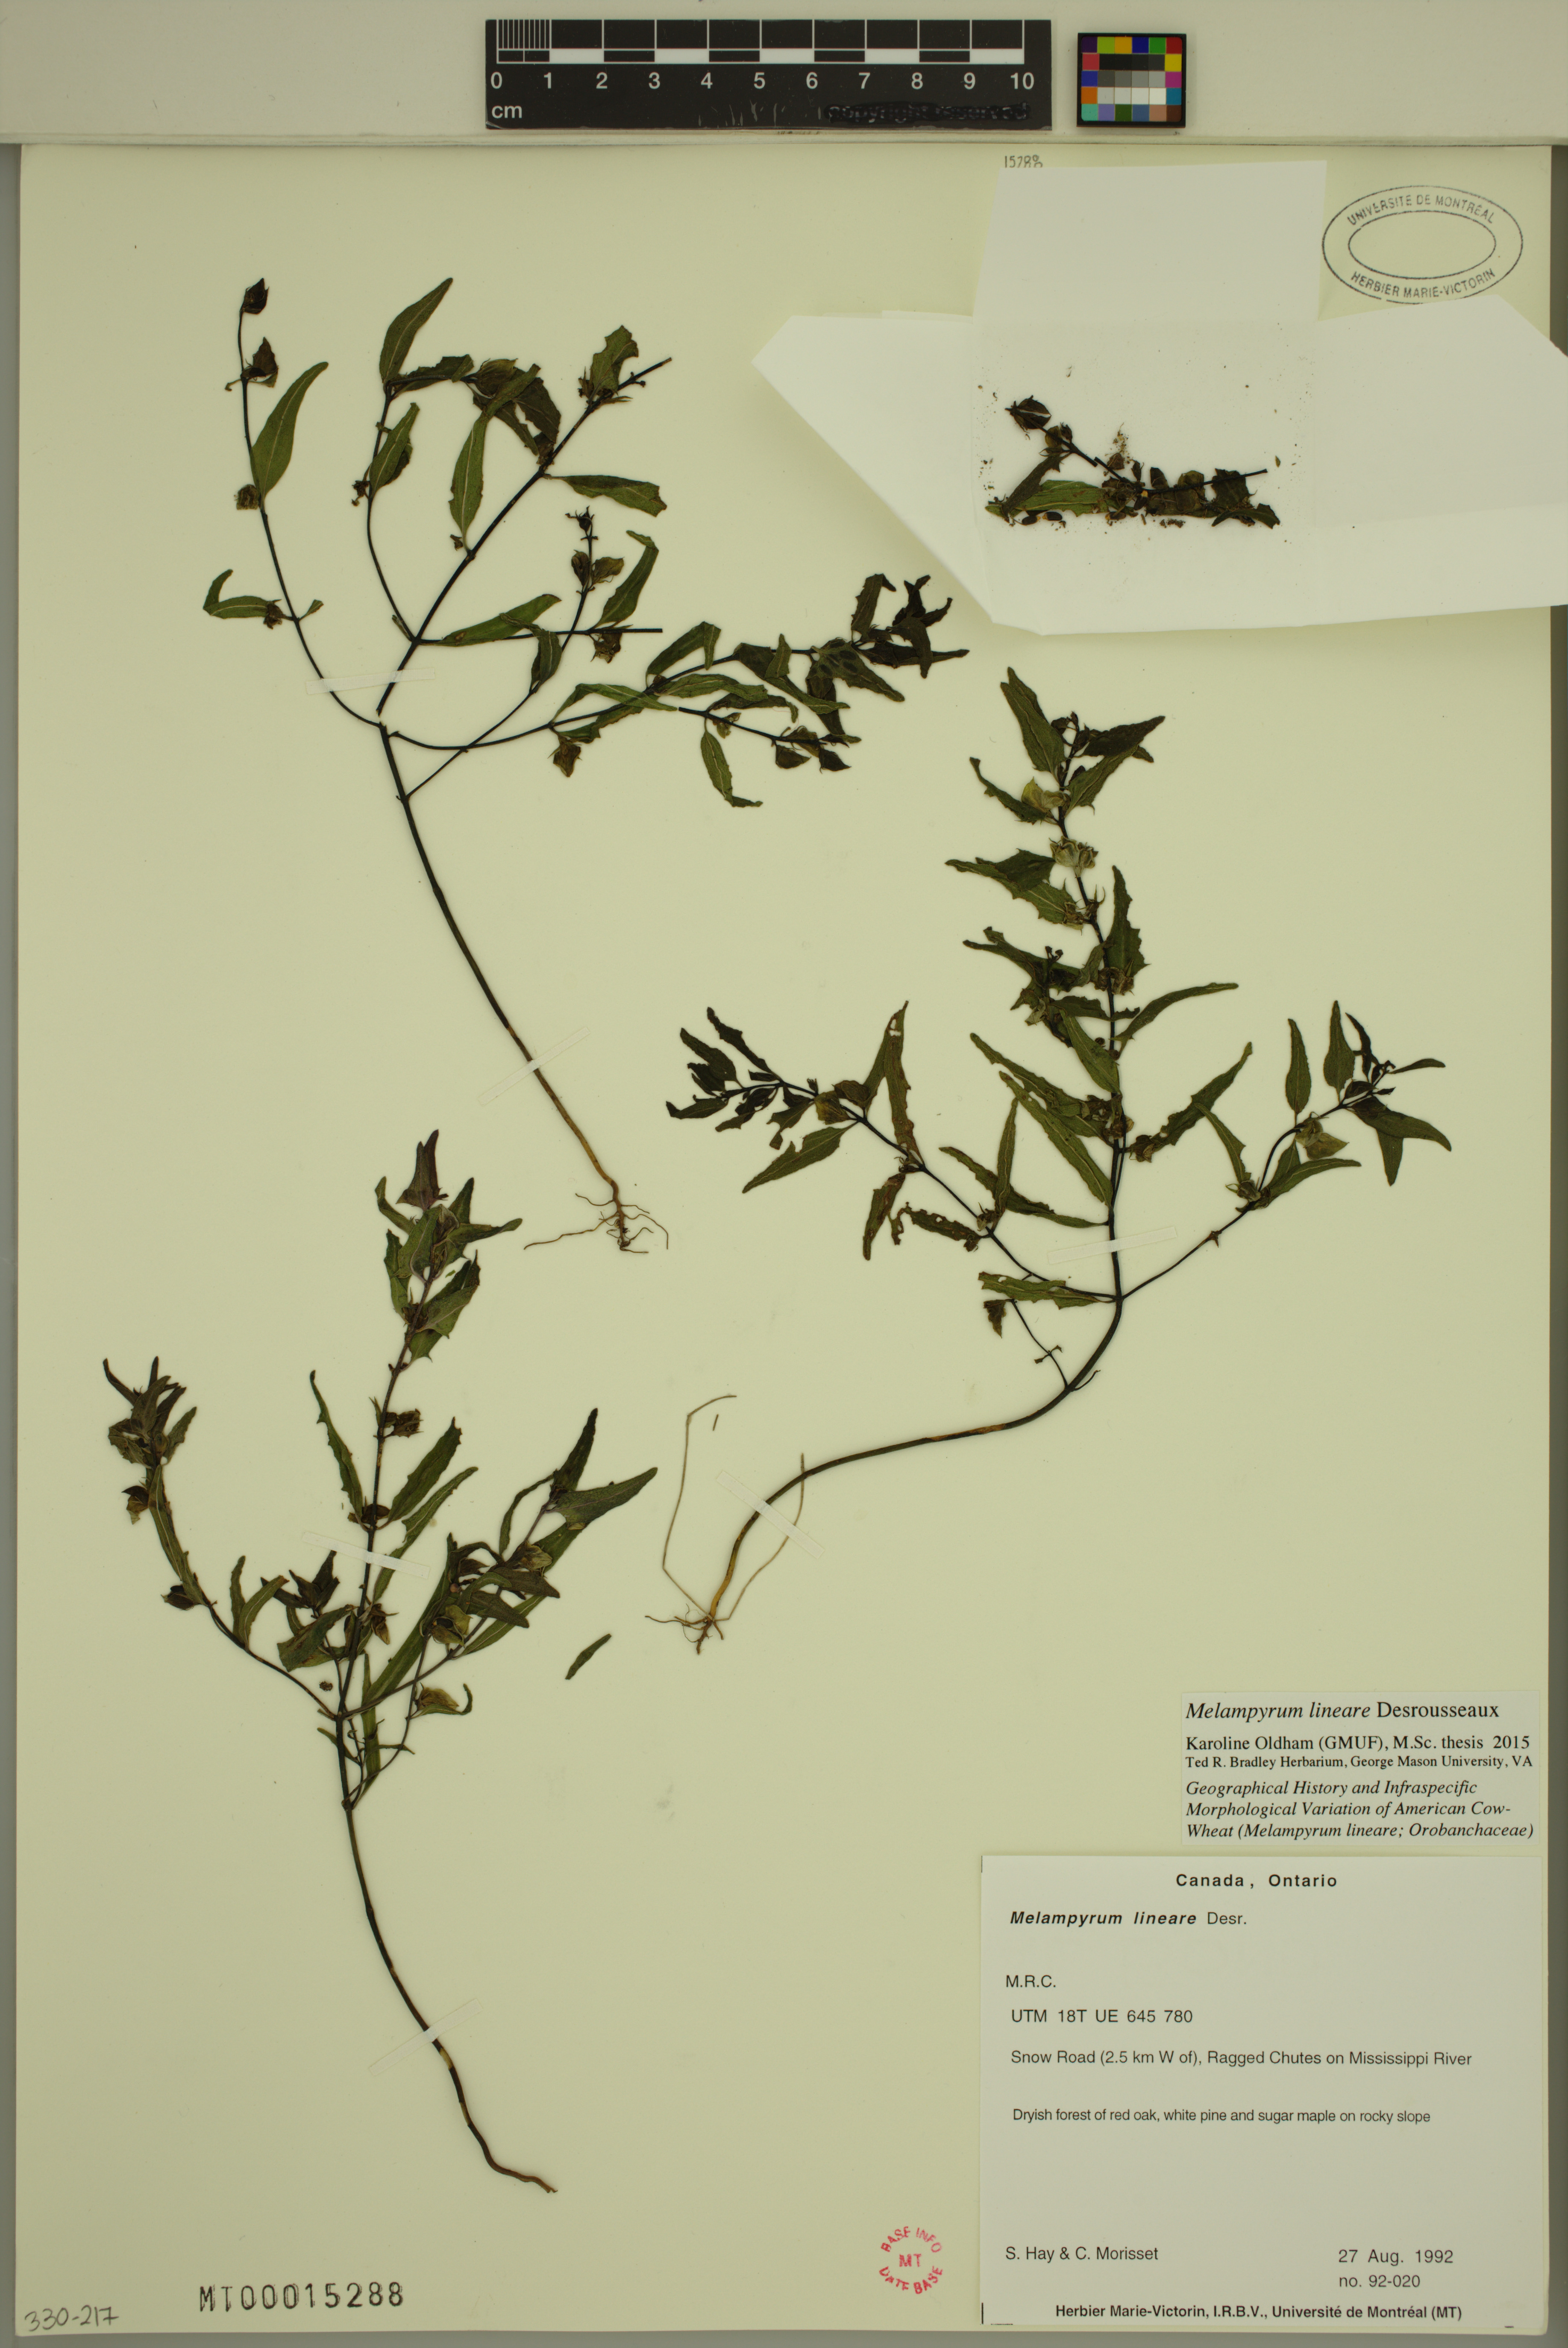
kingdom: Plantae
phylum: Tracheophyta
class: Magnoliopsida
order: Lamiales
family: Orobanchaceae
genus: Melampyrum
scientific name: Melampyrum lineare
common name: American cow-wheat
